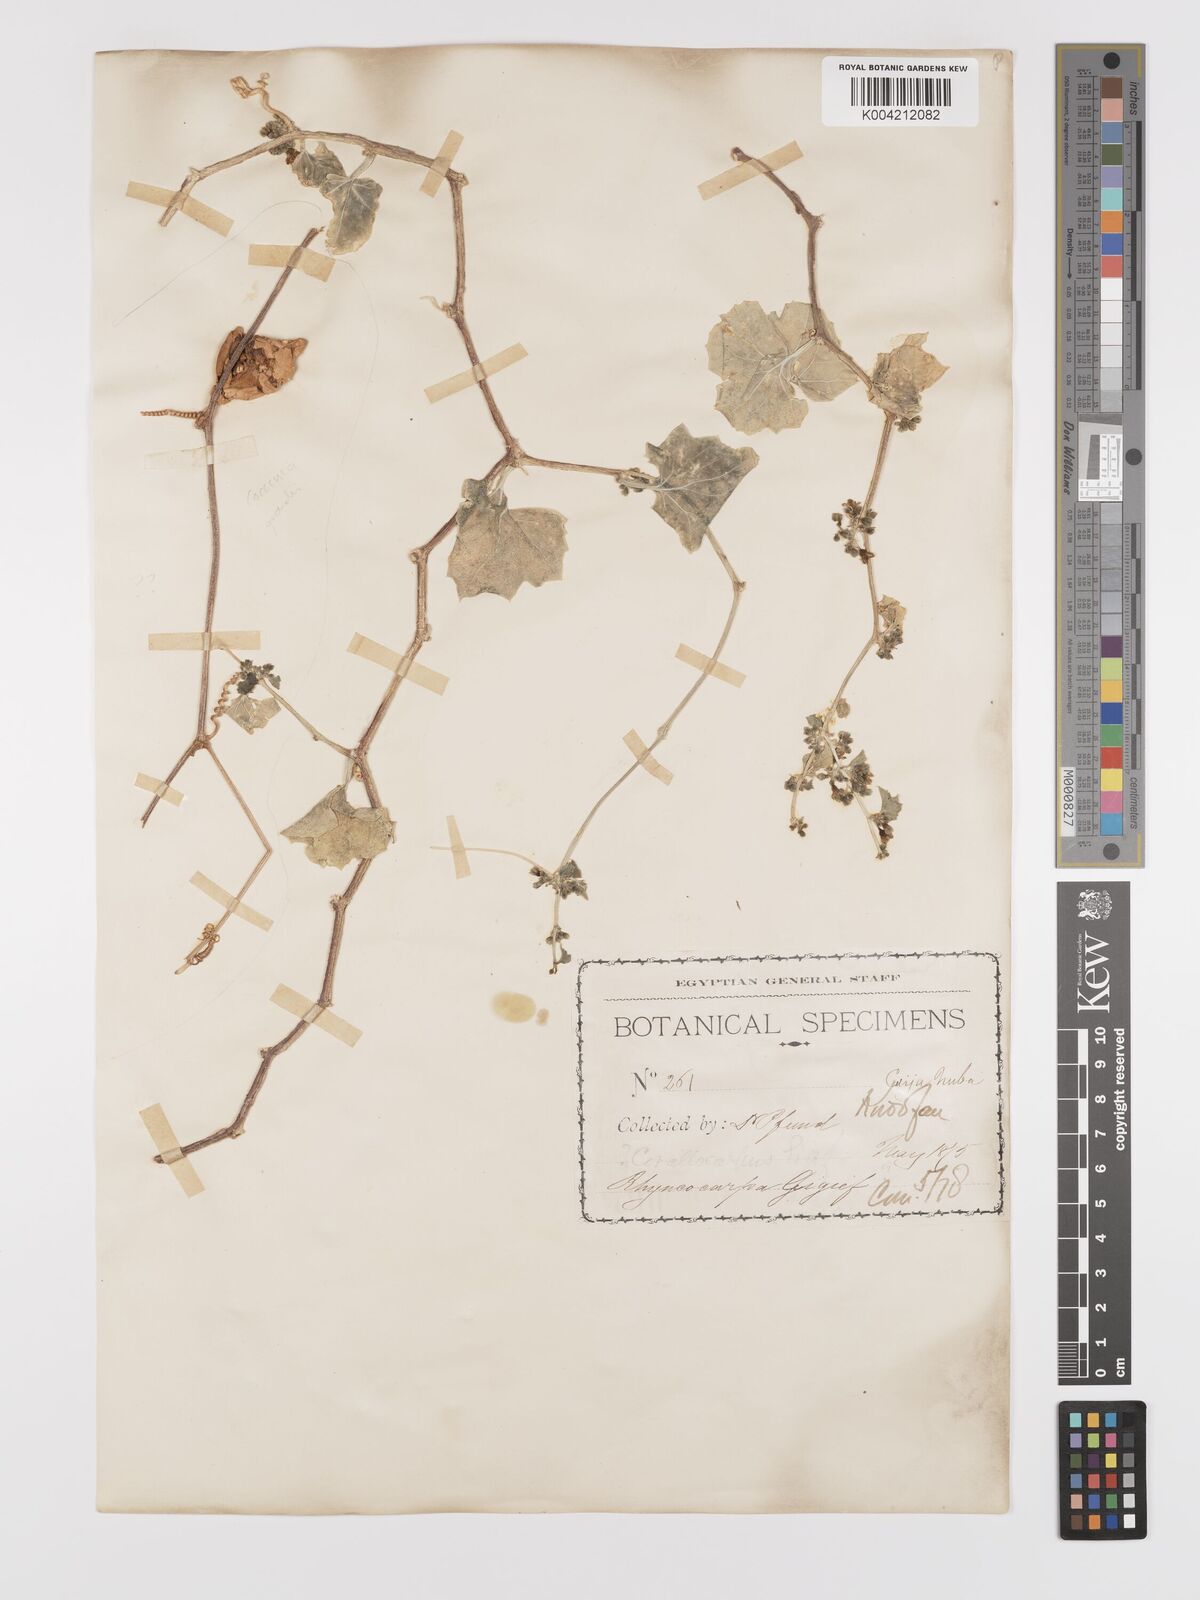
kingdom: Plantae
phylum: Tracheophyta
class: Magnoliopsida
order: Cucurbitales
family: Cucurbitaceae
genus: Kedrostis
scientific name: Kedrostis gijef
